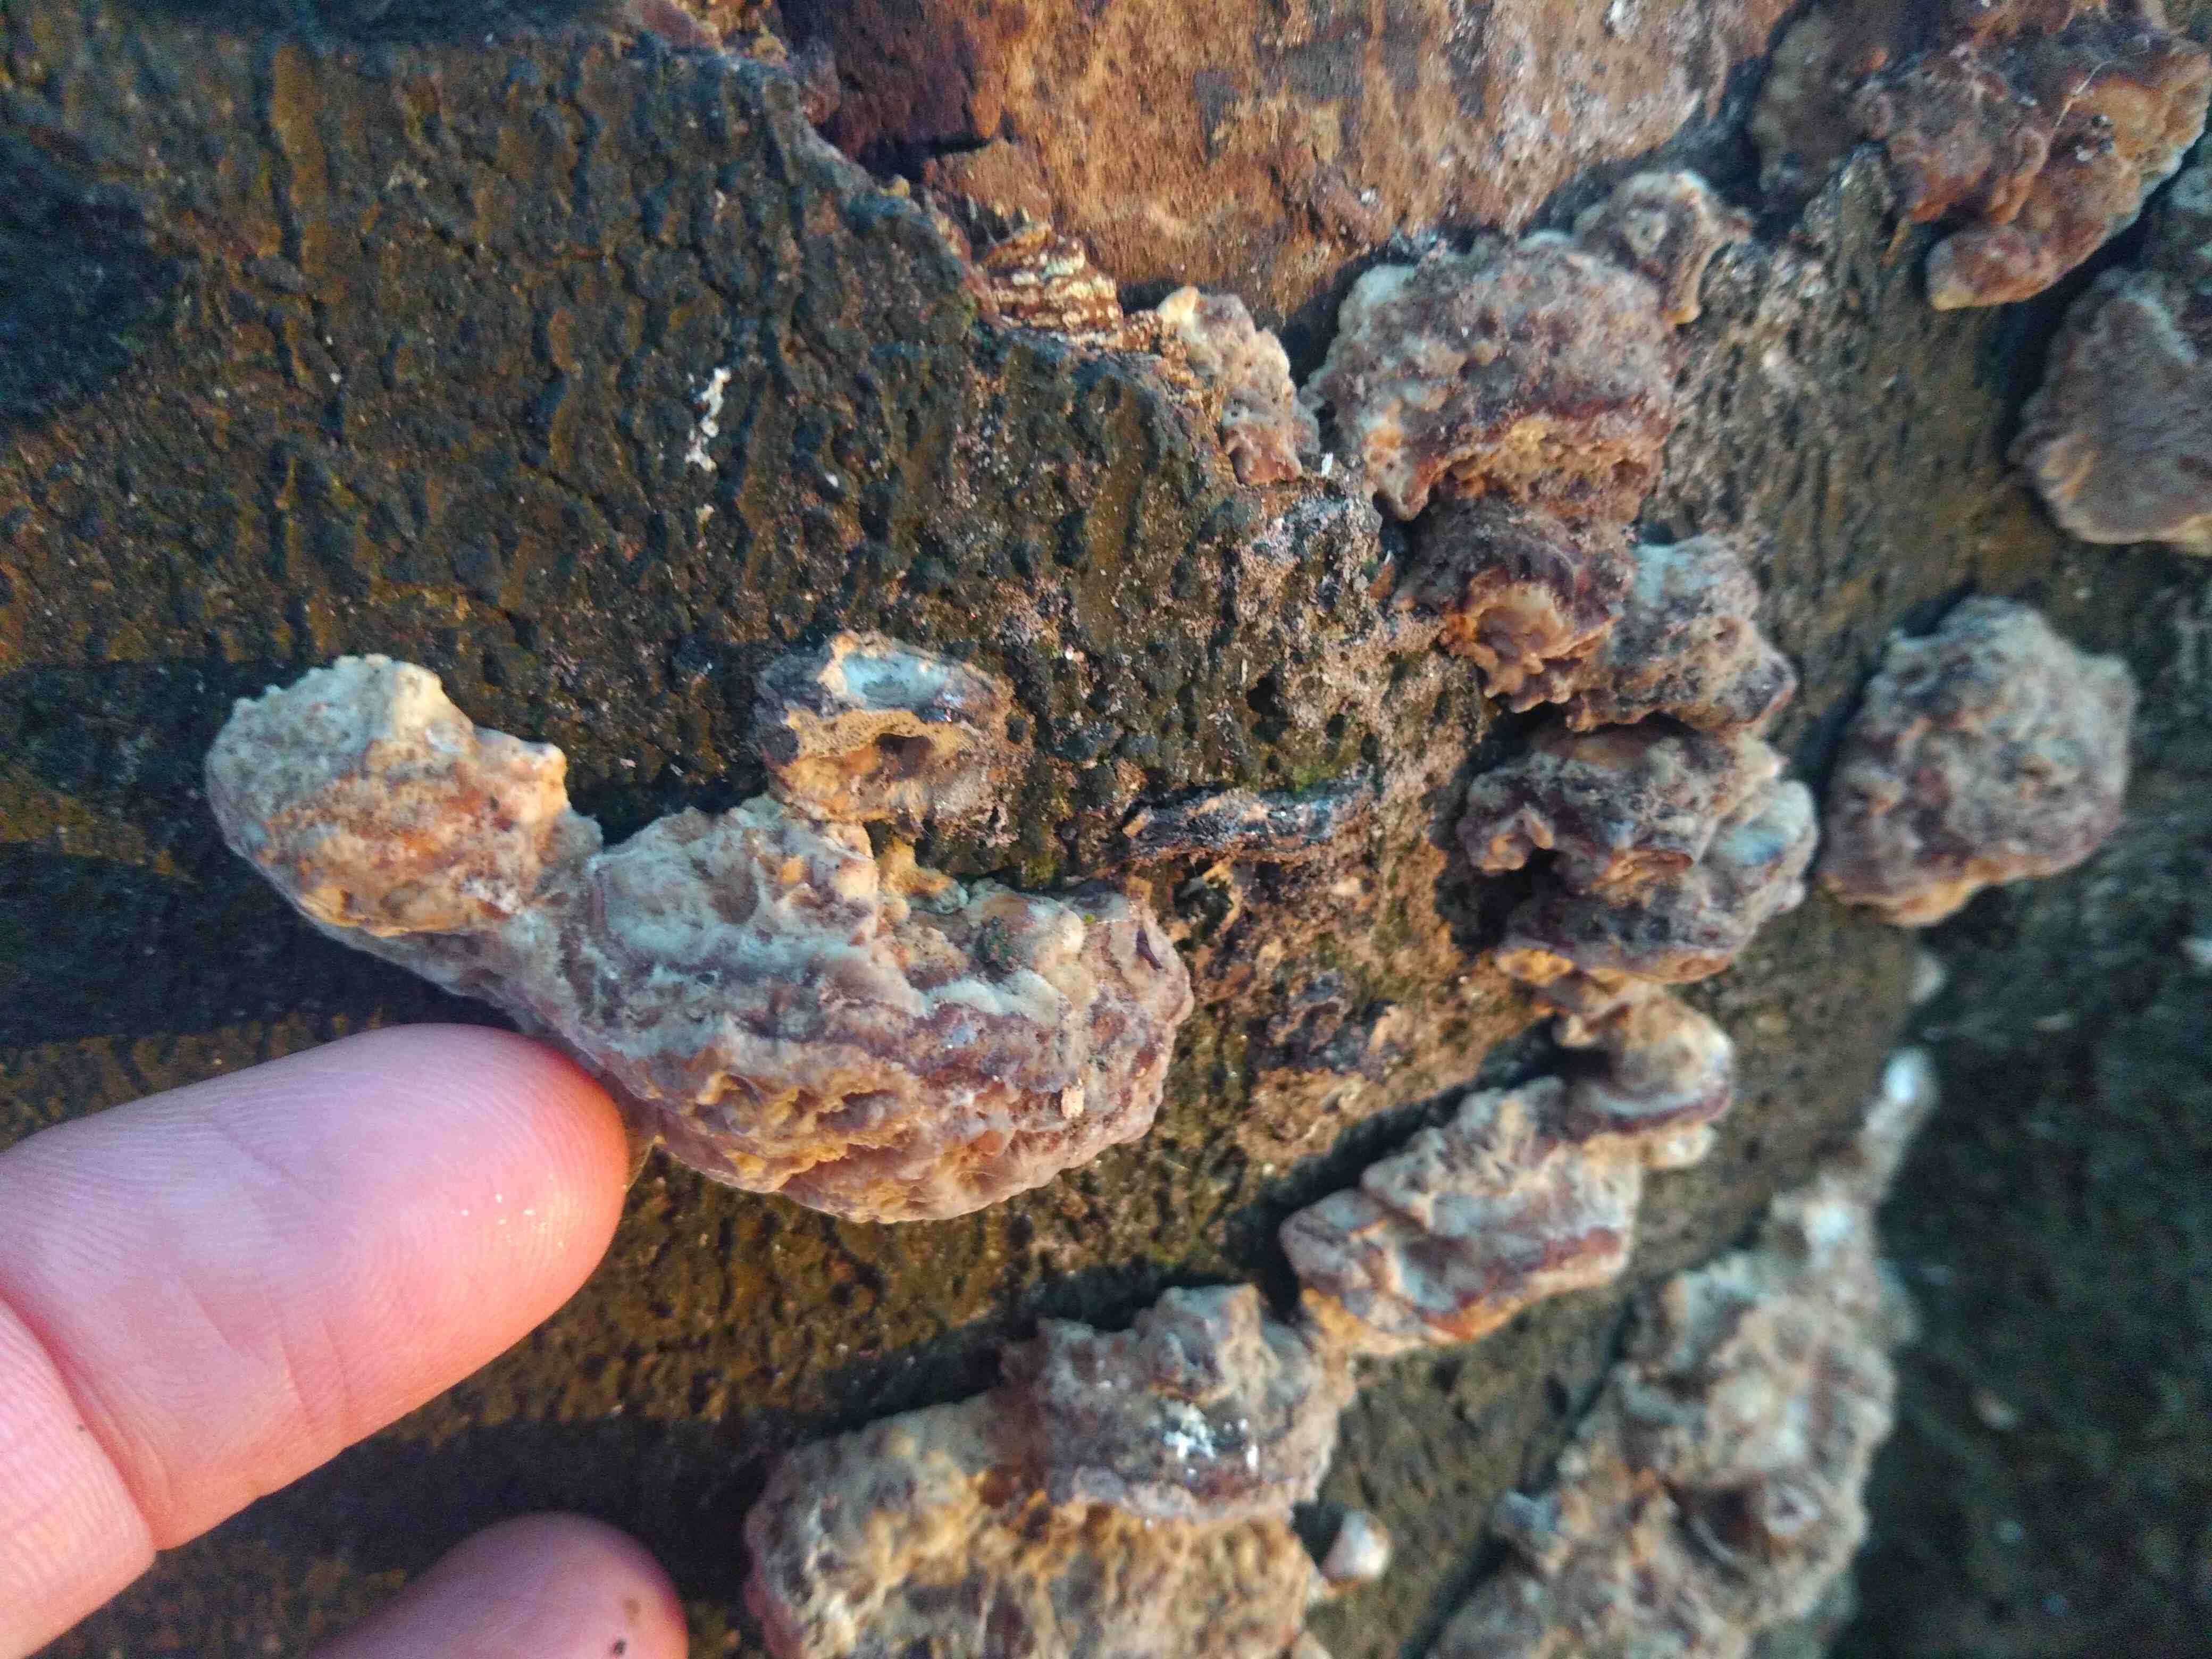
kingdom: Fungi
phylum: Basidiomycota
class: Agaricomycetes
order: Polyporales
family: Polyporaceae
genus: Trametes
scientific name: Trametes versicolor
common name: broget læderporesvamp
